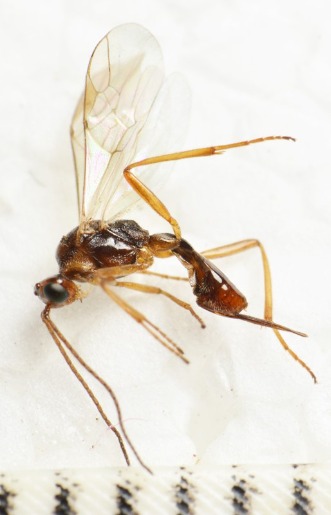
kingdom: Animalia
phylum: Arthropoda
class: Insecta
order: Hymenoptera
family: Braconidae
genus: Meteorus
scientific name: Meteorus rubens
